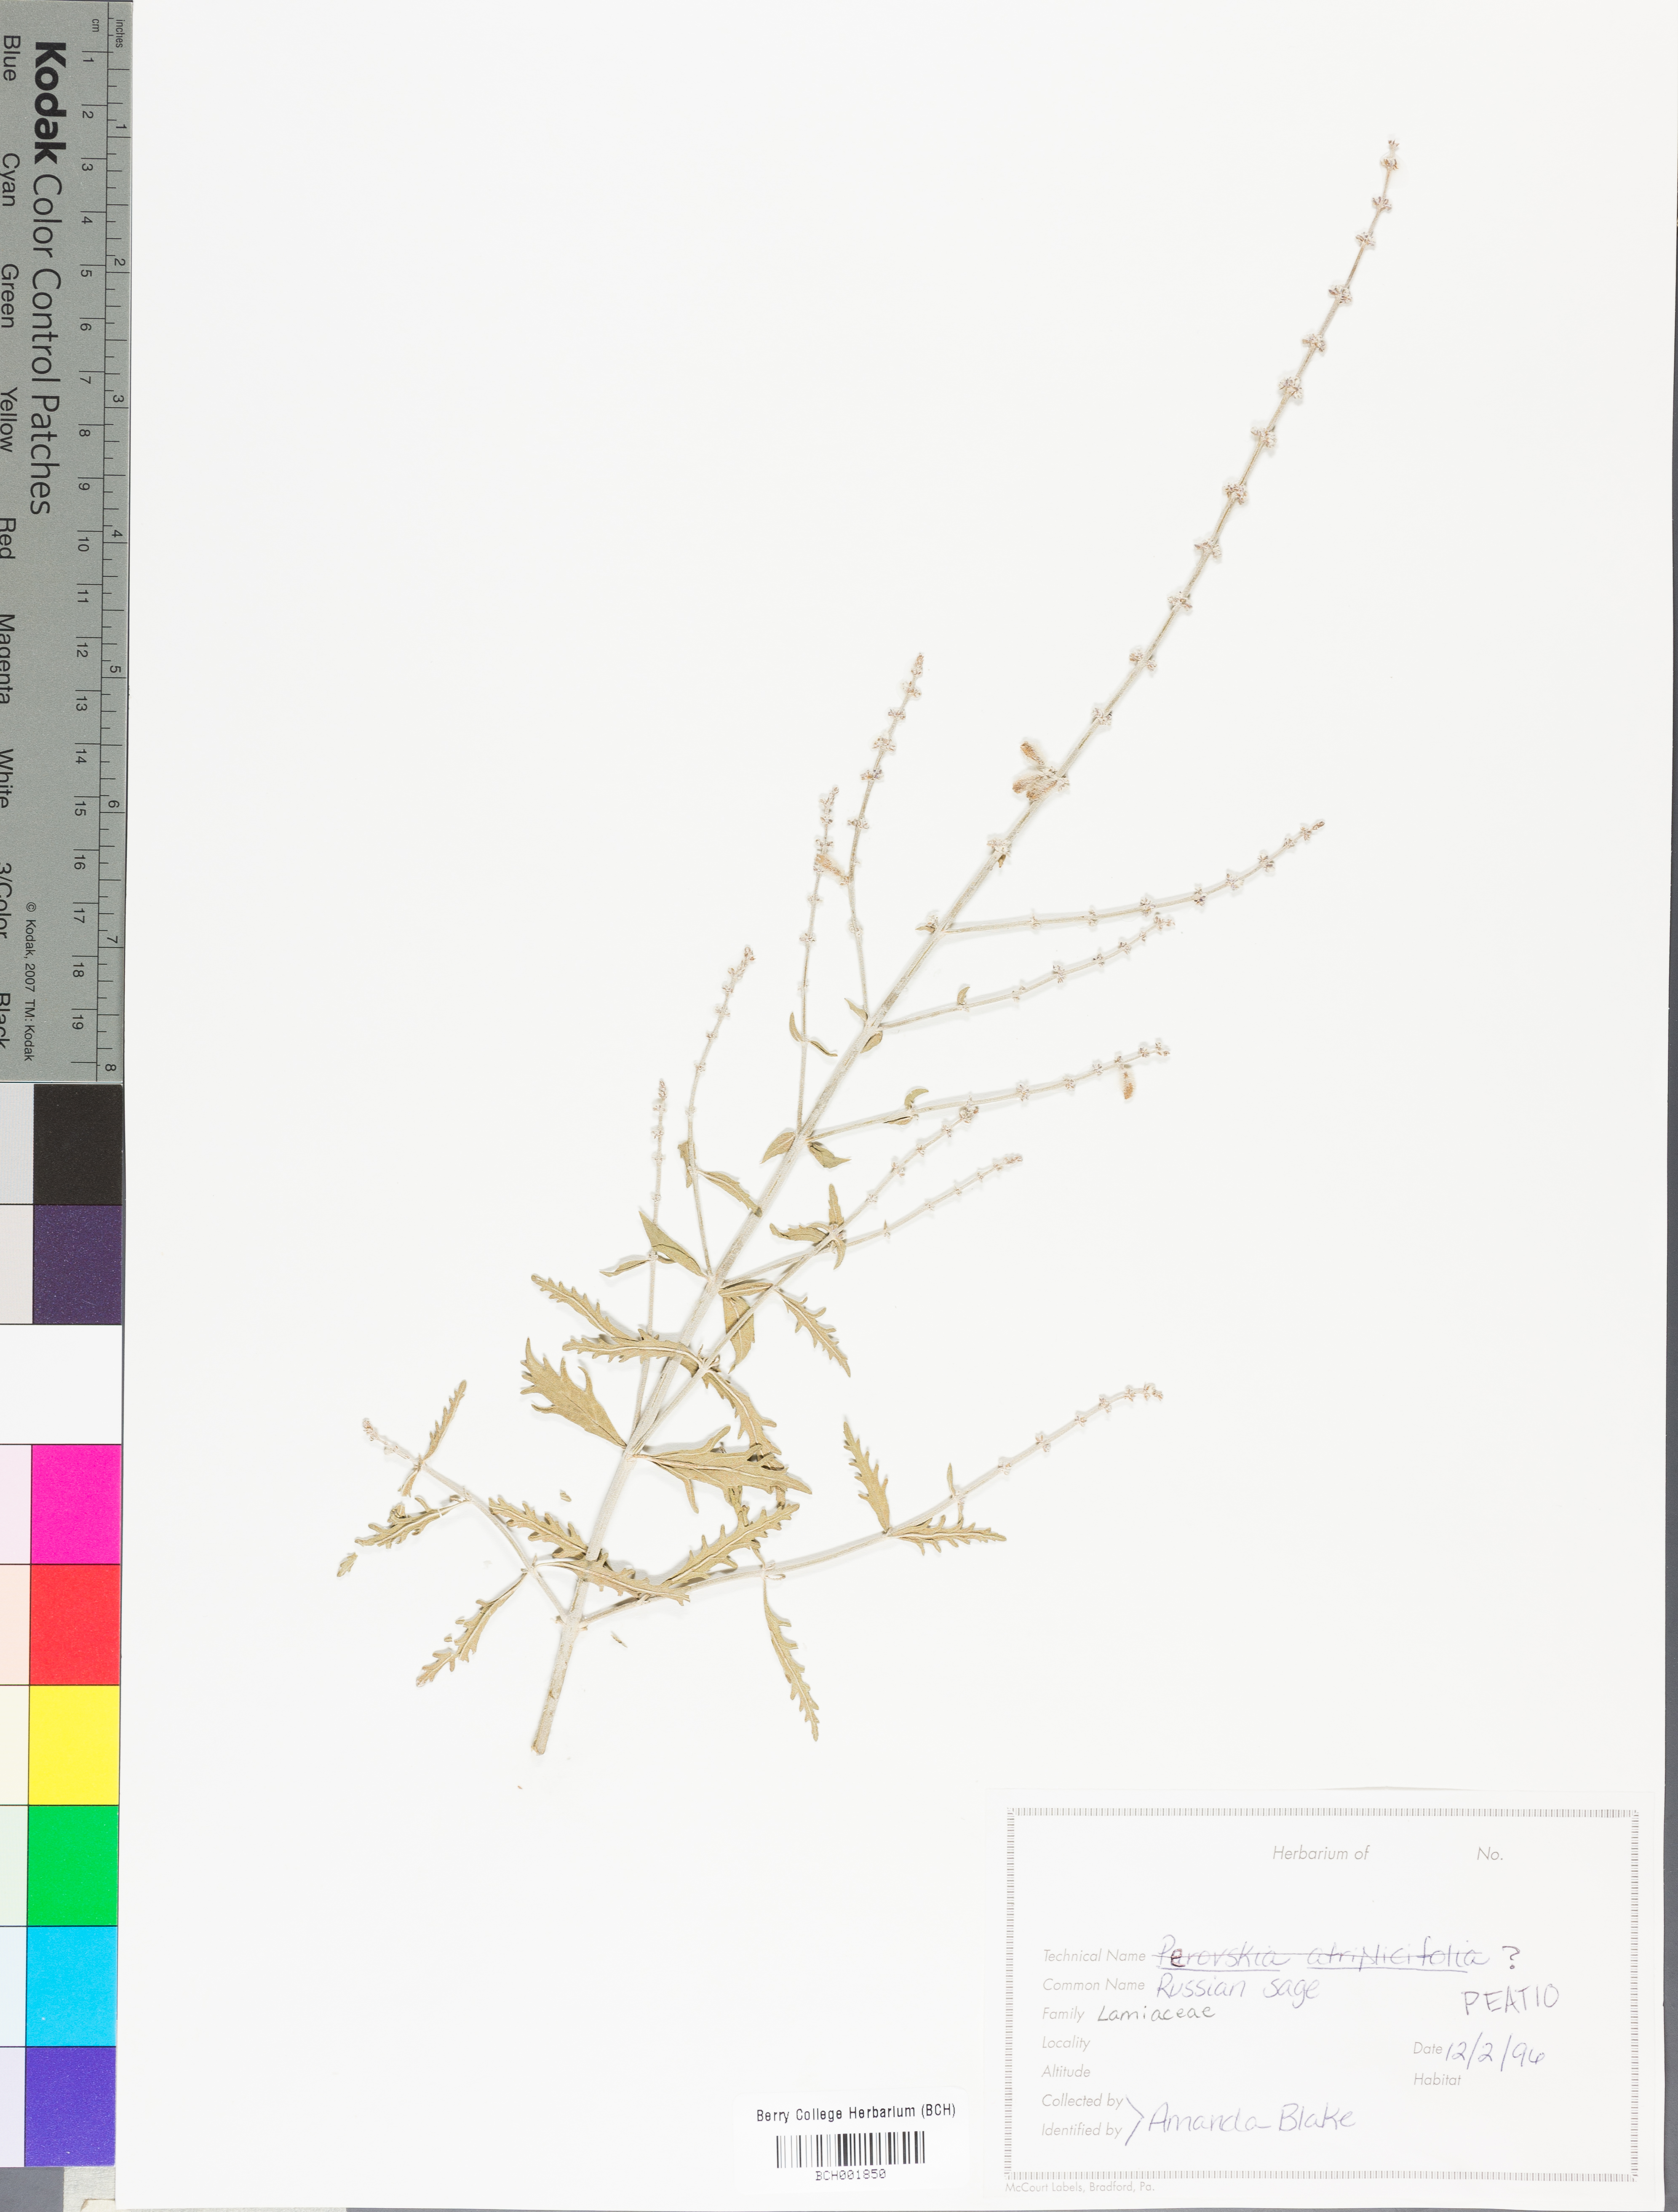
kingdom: Plantae
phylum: Tracheophyta
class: Magnoliopsida
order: Lamiales
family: Lamiaceae
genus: Salvia
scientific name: Salvia yangii
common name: Russian sage
